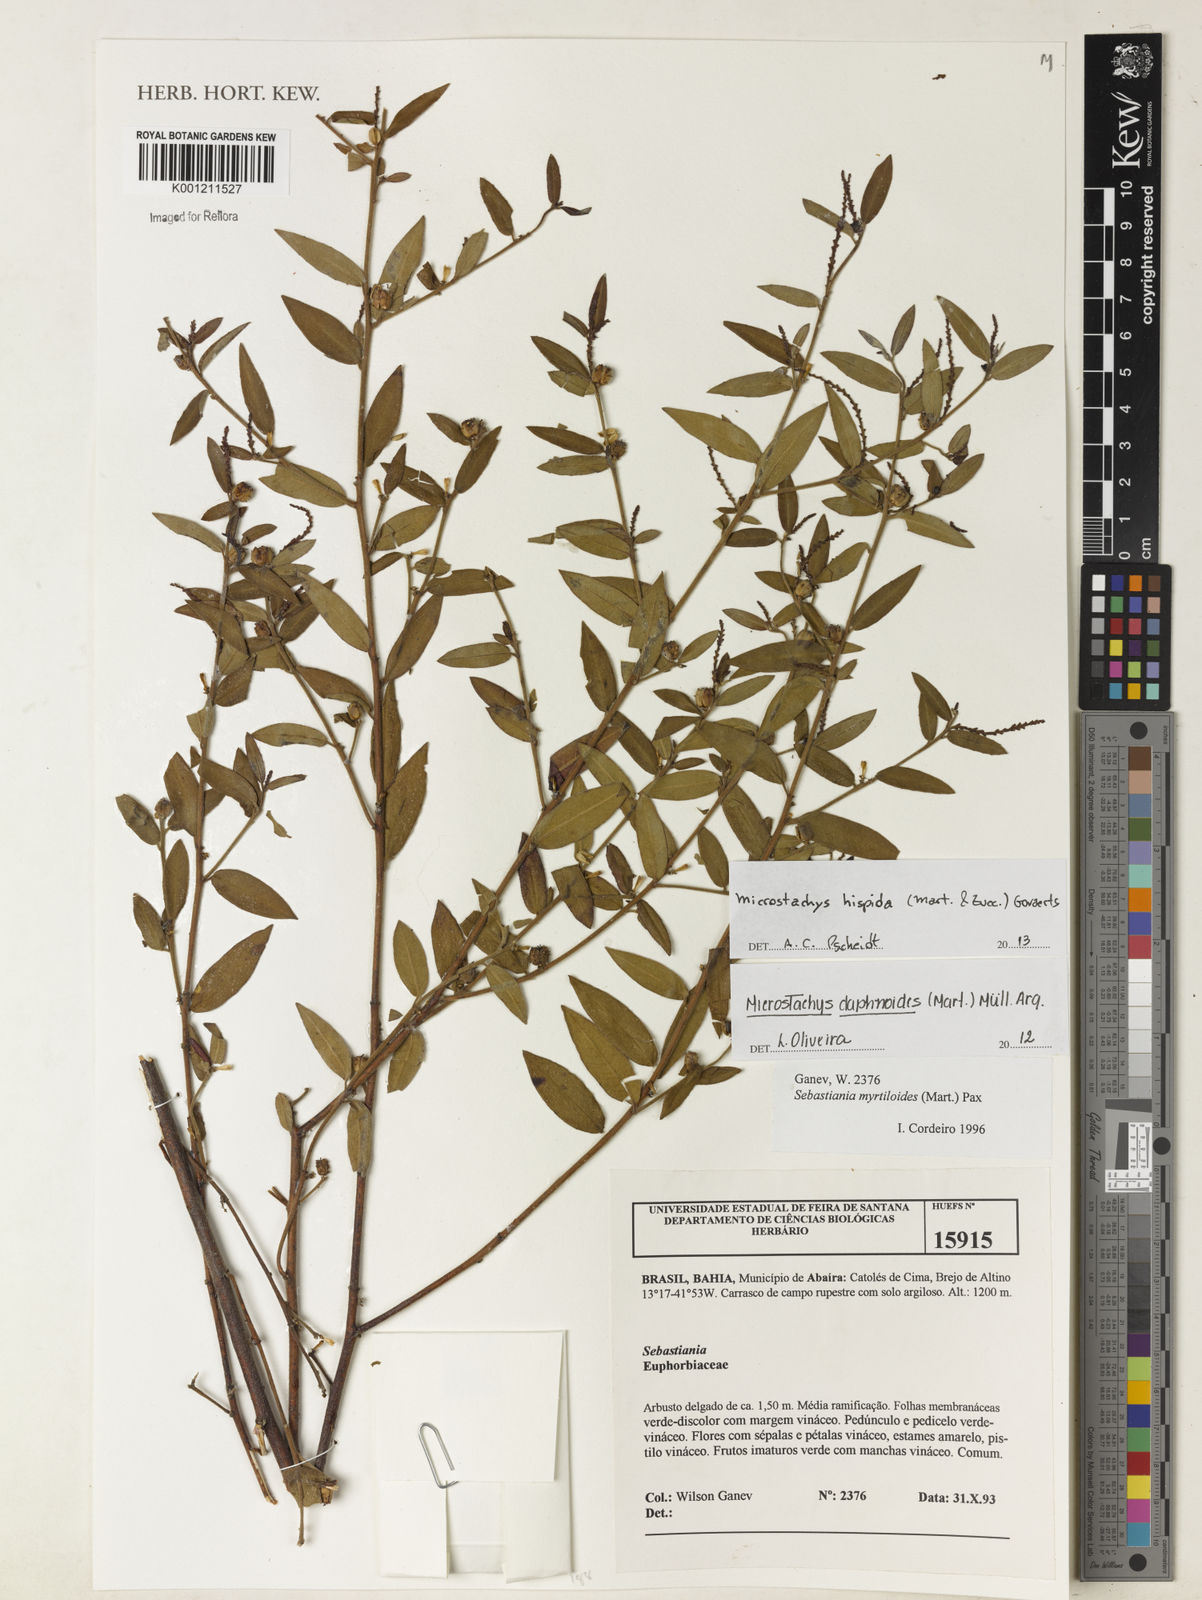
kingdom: Plantae
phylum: Tracheophyta
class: Magnoliopsida
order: Malpighiales
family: Euphorbiaceae
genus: Microstachys
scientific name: Microstachys hispida
